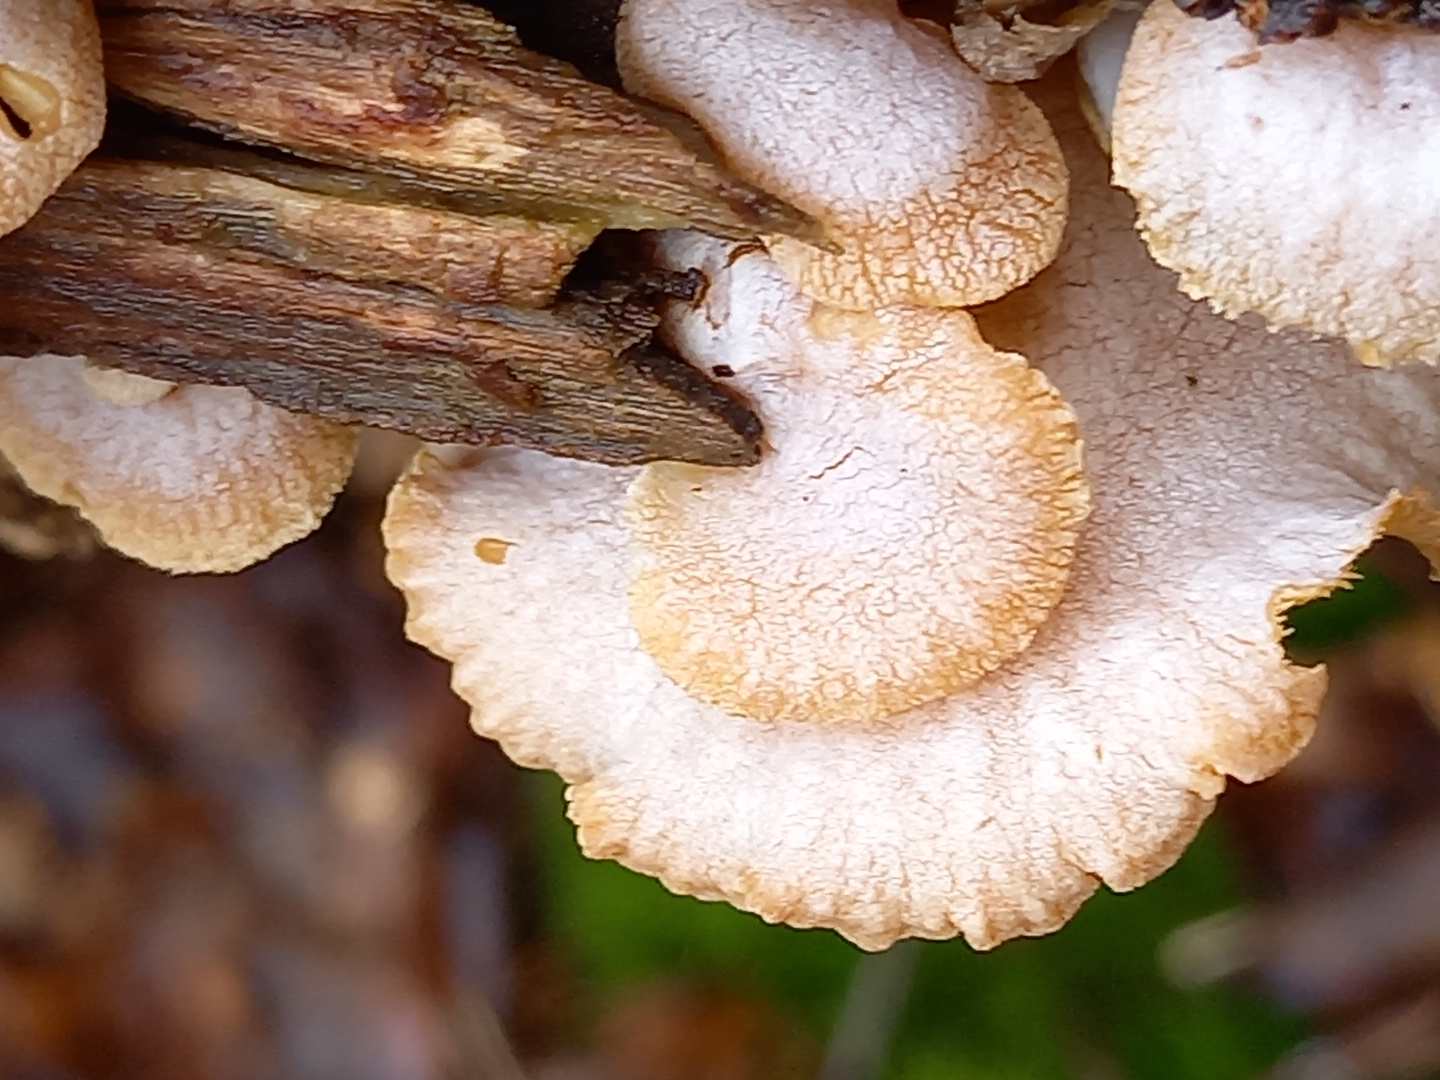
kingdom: Fungi
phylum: Basidiomycota
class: Agaricomycetes
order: Agaricales
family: Mycenaceae
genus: Panellus
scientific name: Panellus stipticus
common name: kliddet epaulethat
